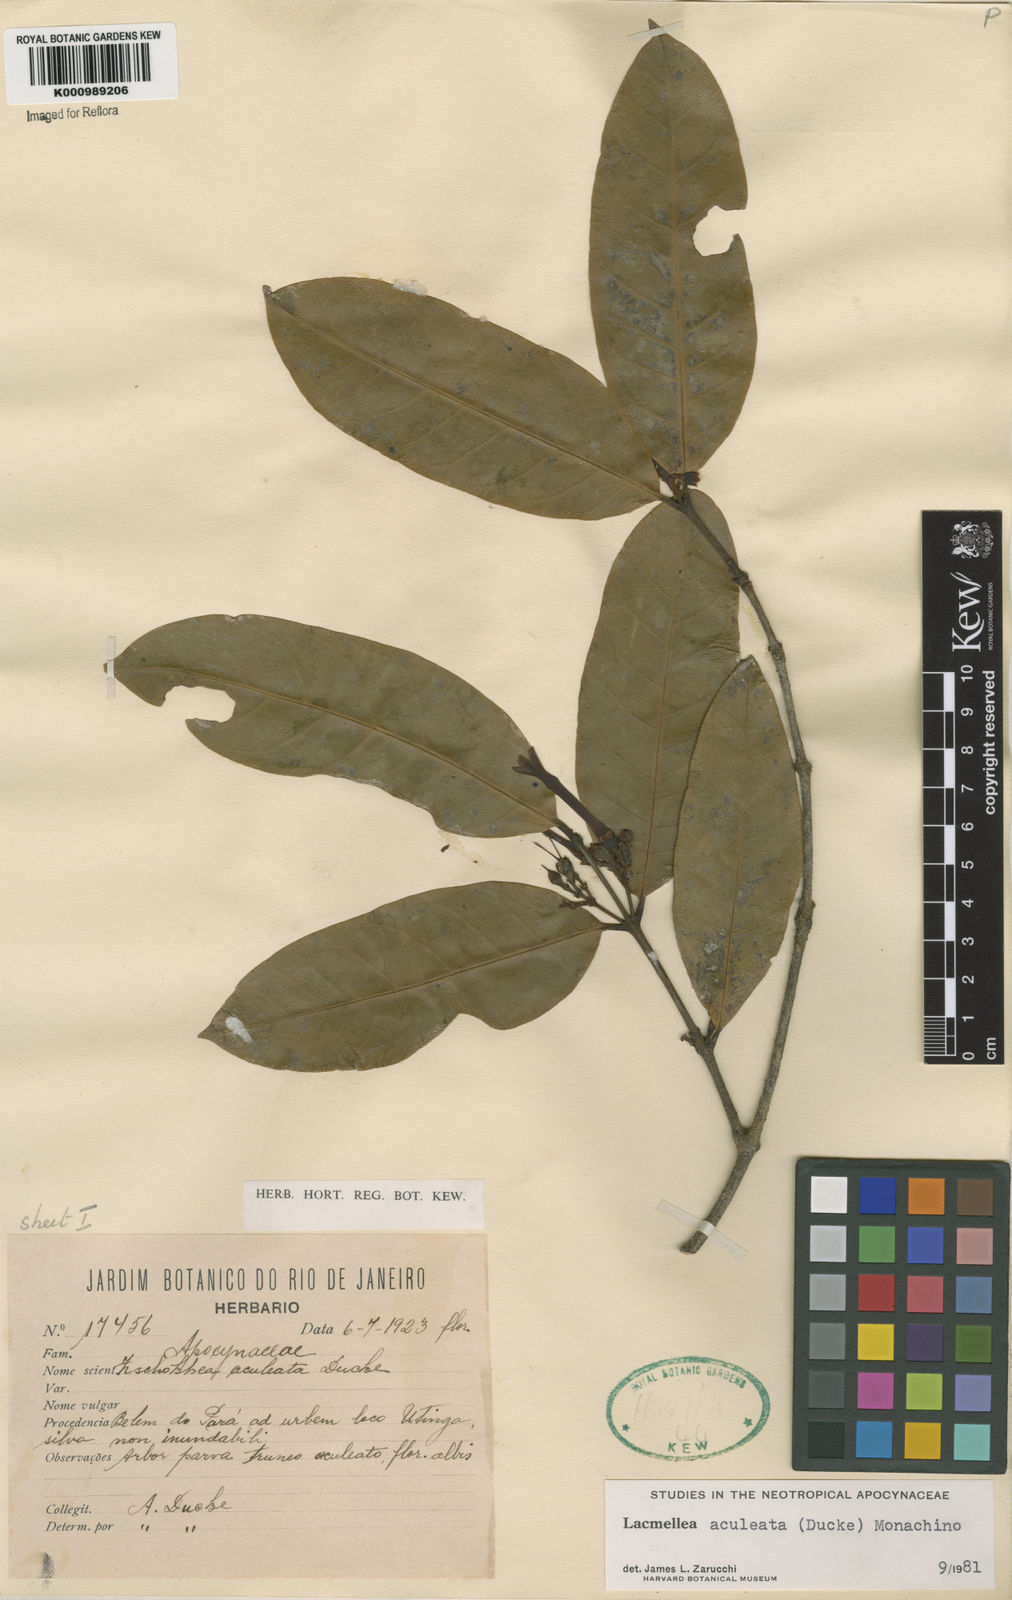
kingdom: Plantae
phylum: Tracheophyta
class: Magnoliopsida
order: Gentianales
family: Apocynaceae
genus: Lacmellea
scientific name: Lacmellea aculeata
